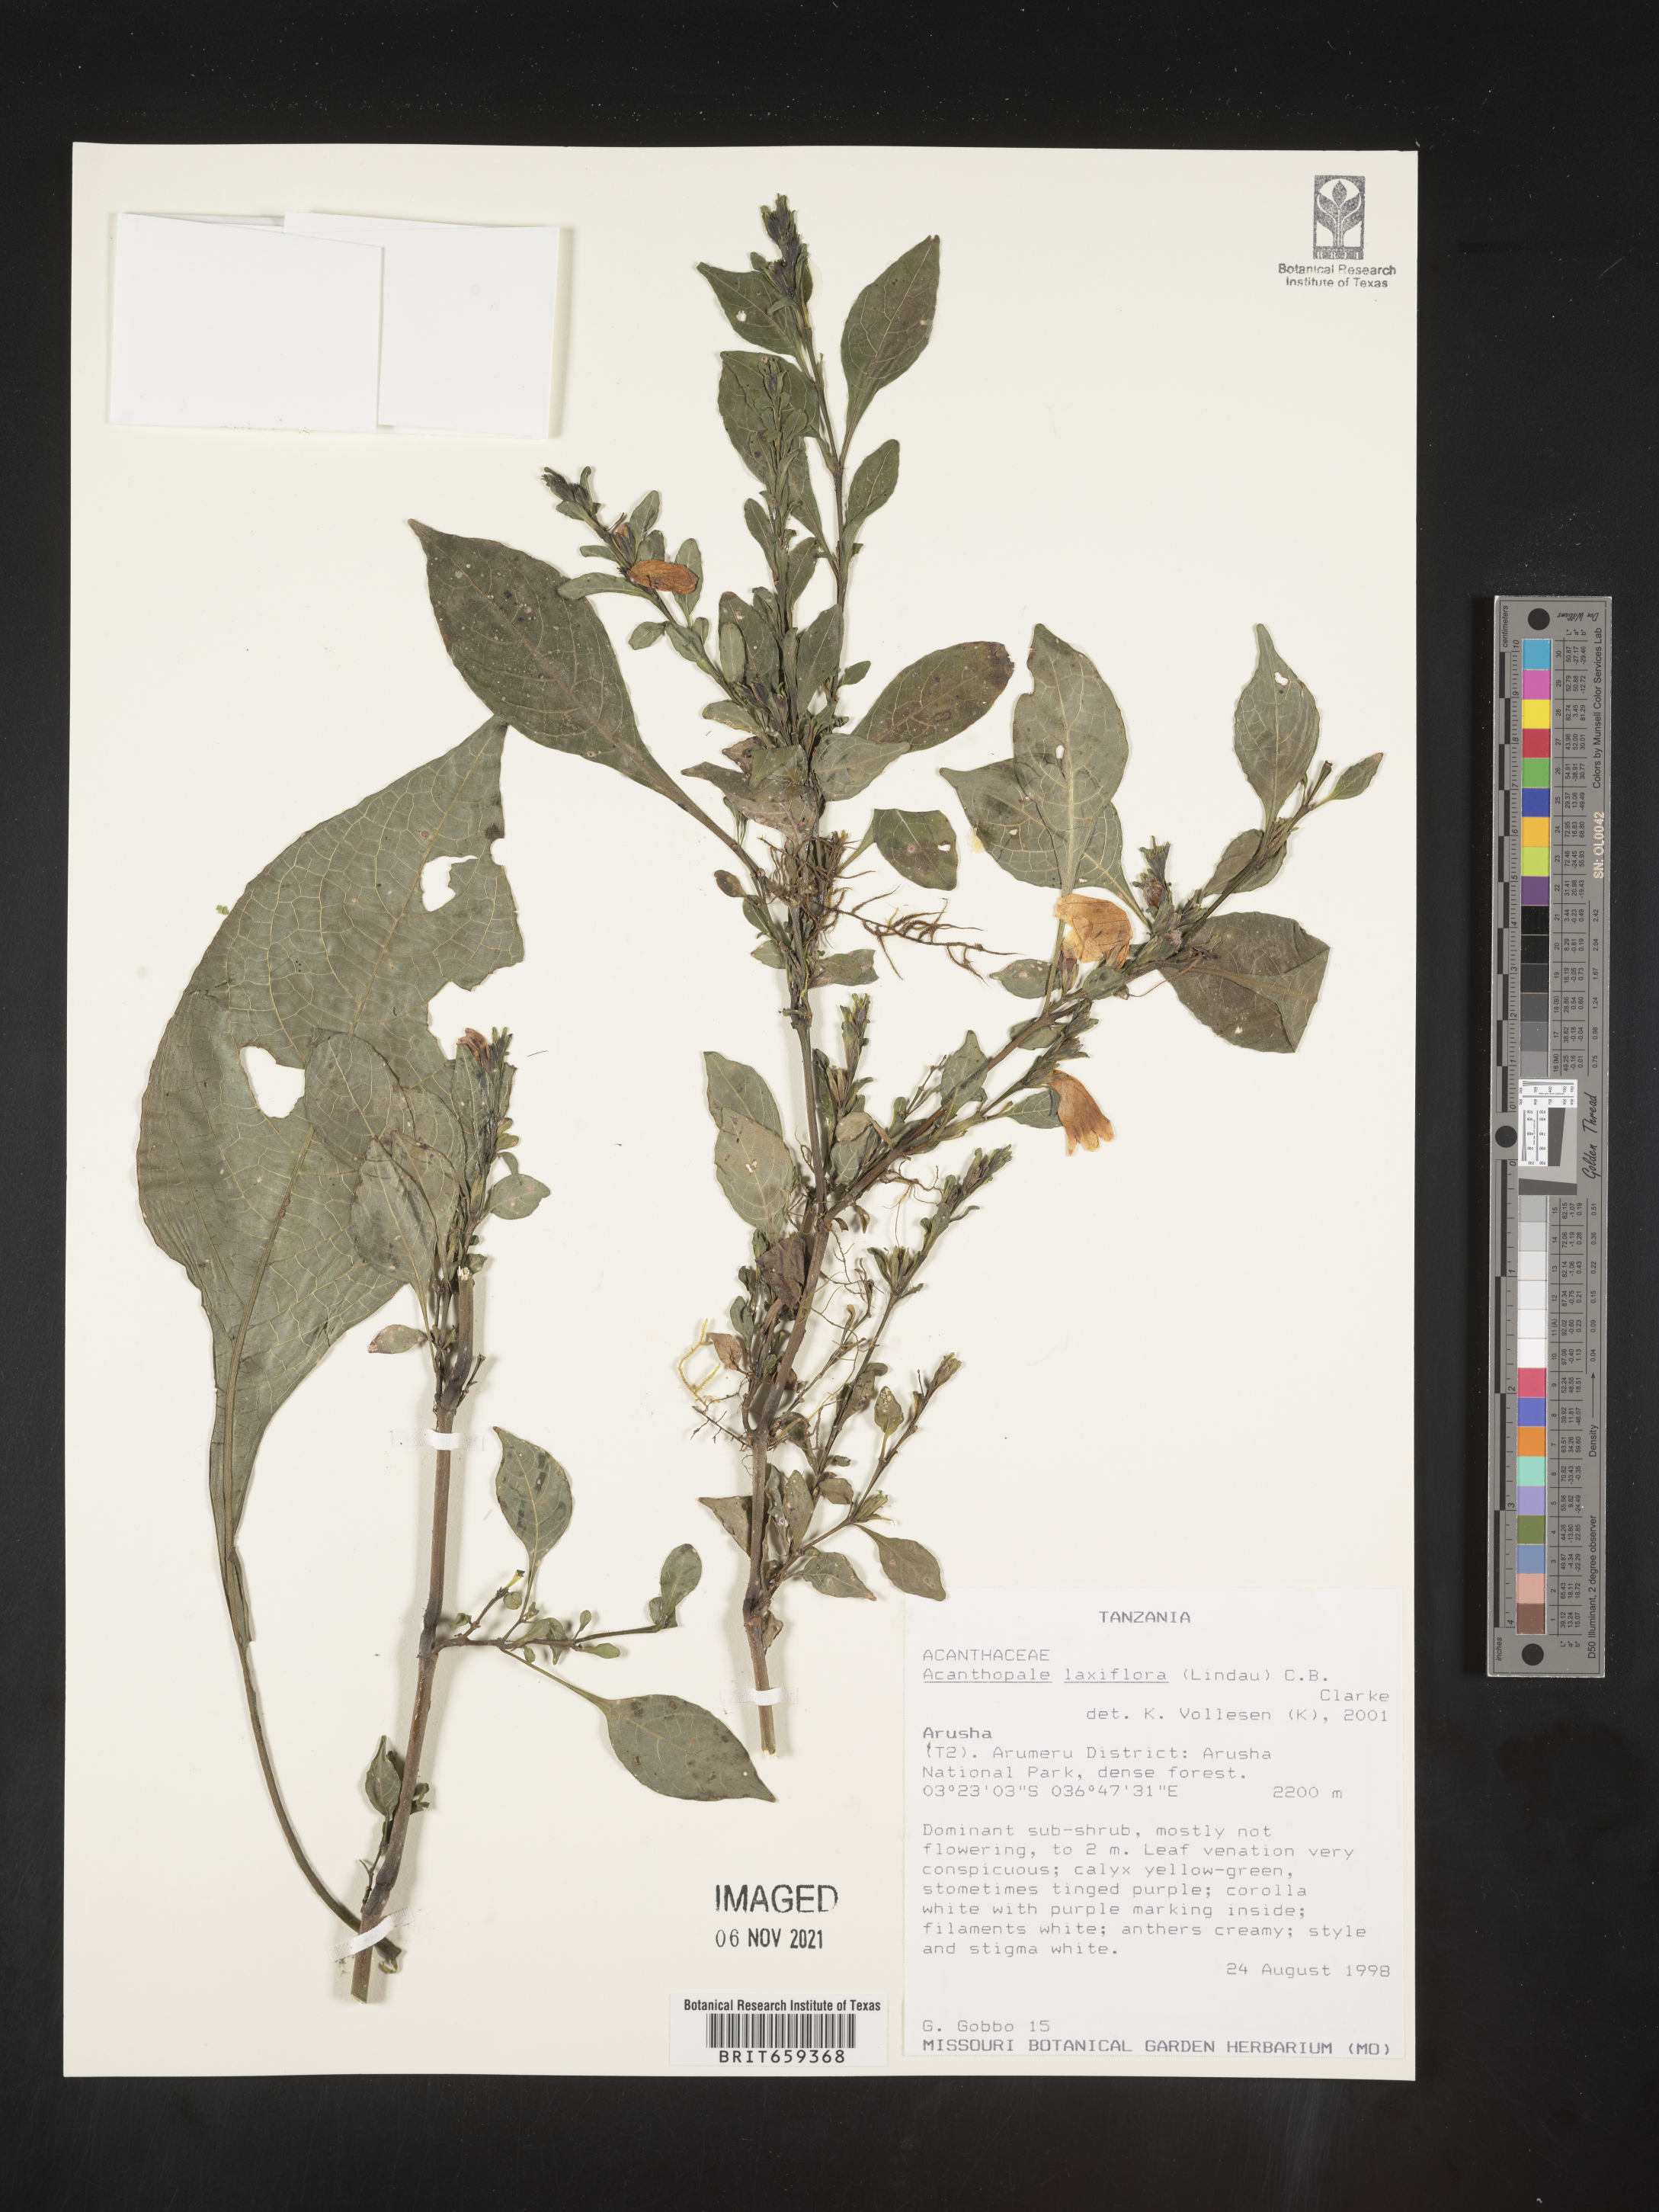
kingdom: Plantae
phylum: Tracheophyta
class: Magnoliopsida
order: Lamiales
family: Acanthaceae
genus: Acanthopale
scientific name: Acanthopale laxiflora
